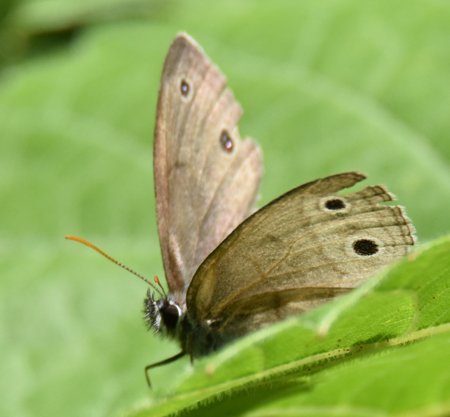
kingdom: Animalia
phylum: Arthropoda
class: Insecta
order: Lepidoptera
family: Nymphalidae
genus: Euptychia
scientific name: Euptychia cymela
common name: Little Wood Satyr
